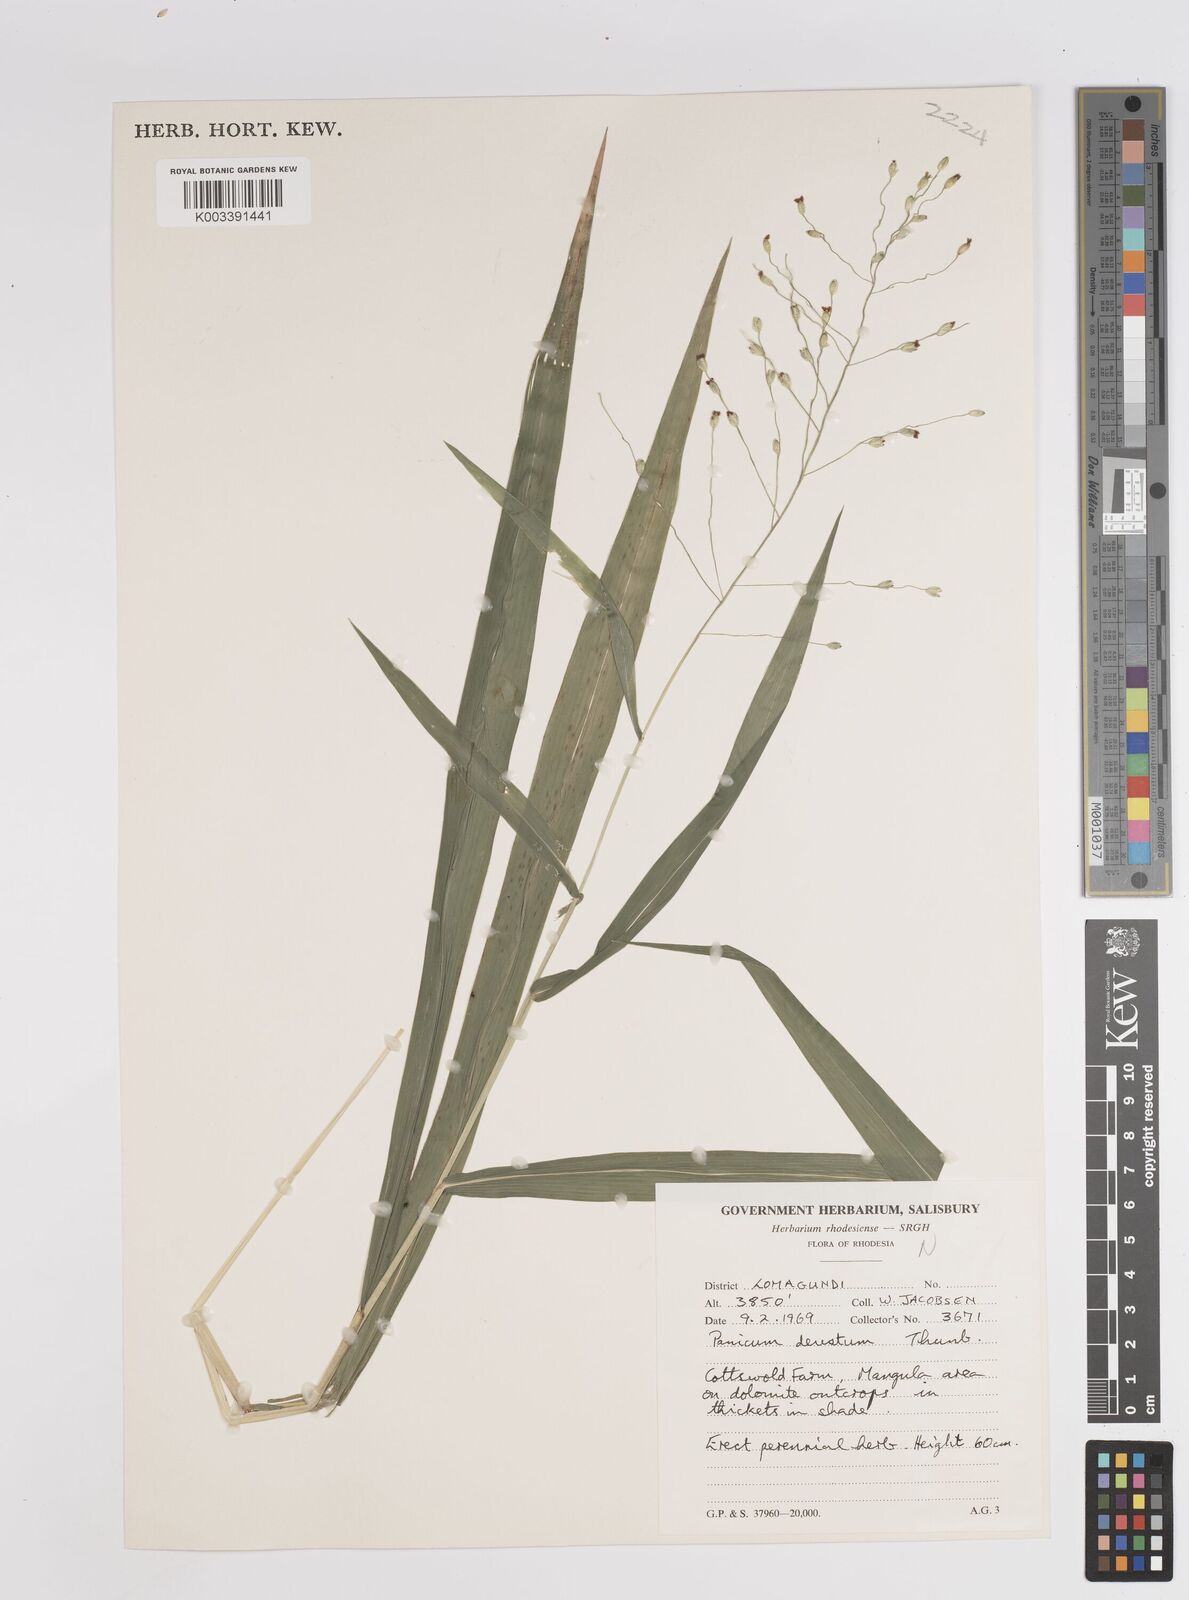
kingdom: Plantae
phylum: Tracheophyta
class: Liliopsida
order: Poales
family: Poaceae
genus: Panicum
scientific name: Panicum deustum
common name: Reed panicum
